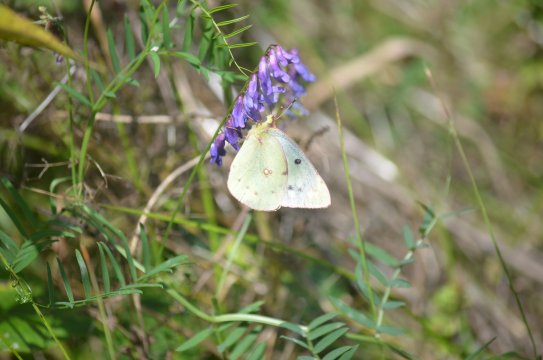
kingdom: Animalia
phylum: Arthropoda
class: Insecta
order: Lepidoptera
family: Pieridae
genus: Colias
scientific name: Colias philodice
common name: Clouded Sulphur
